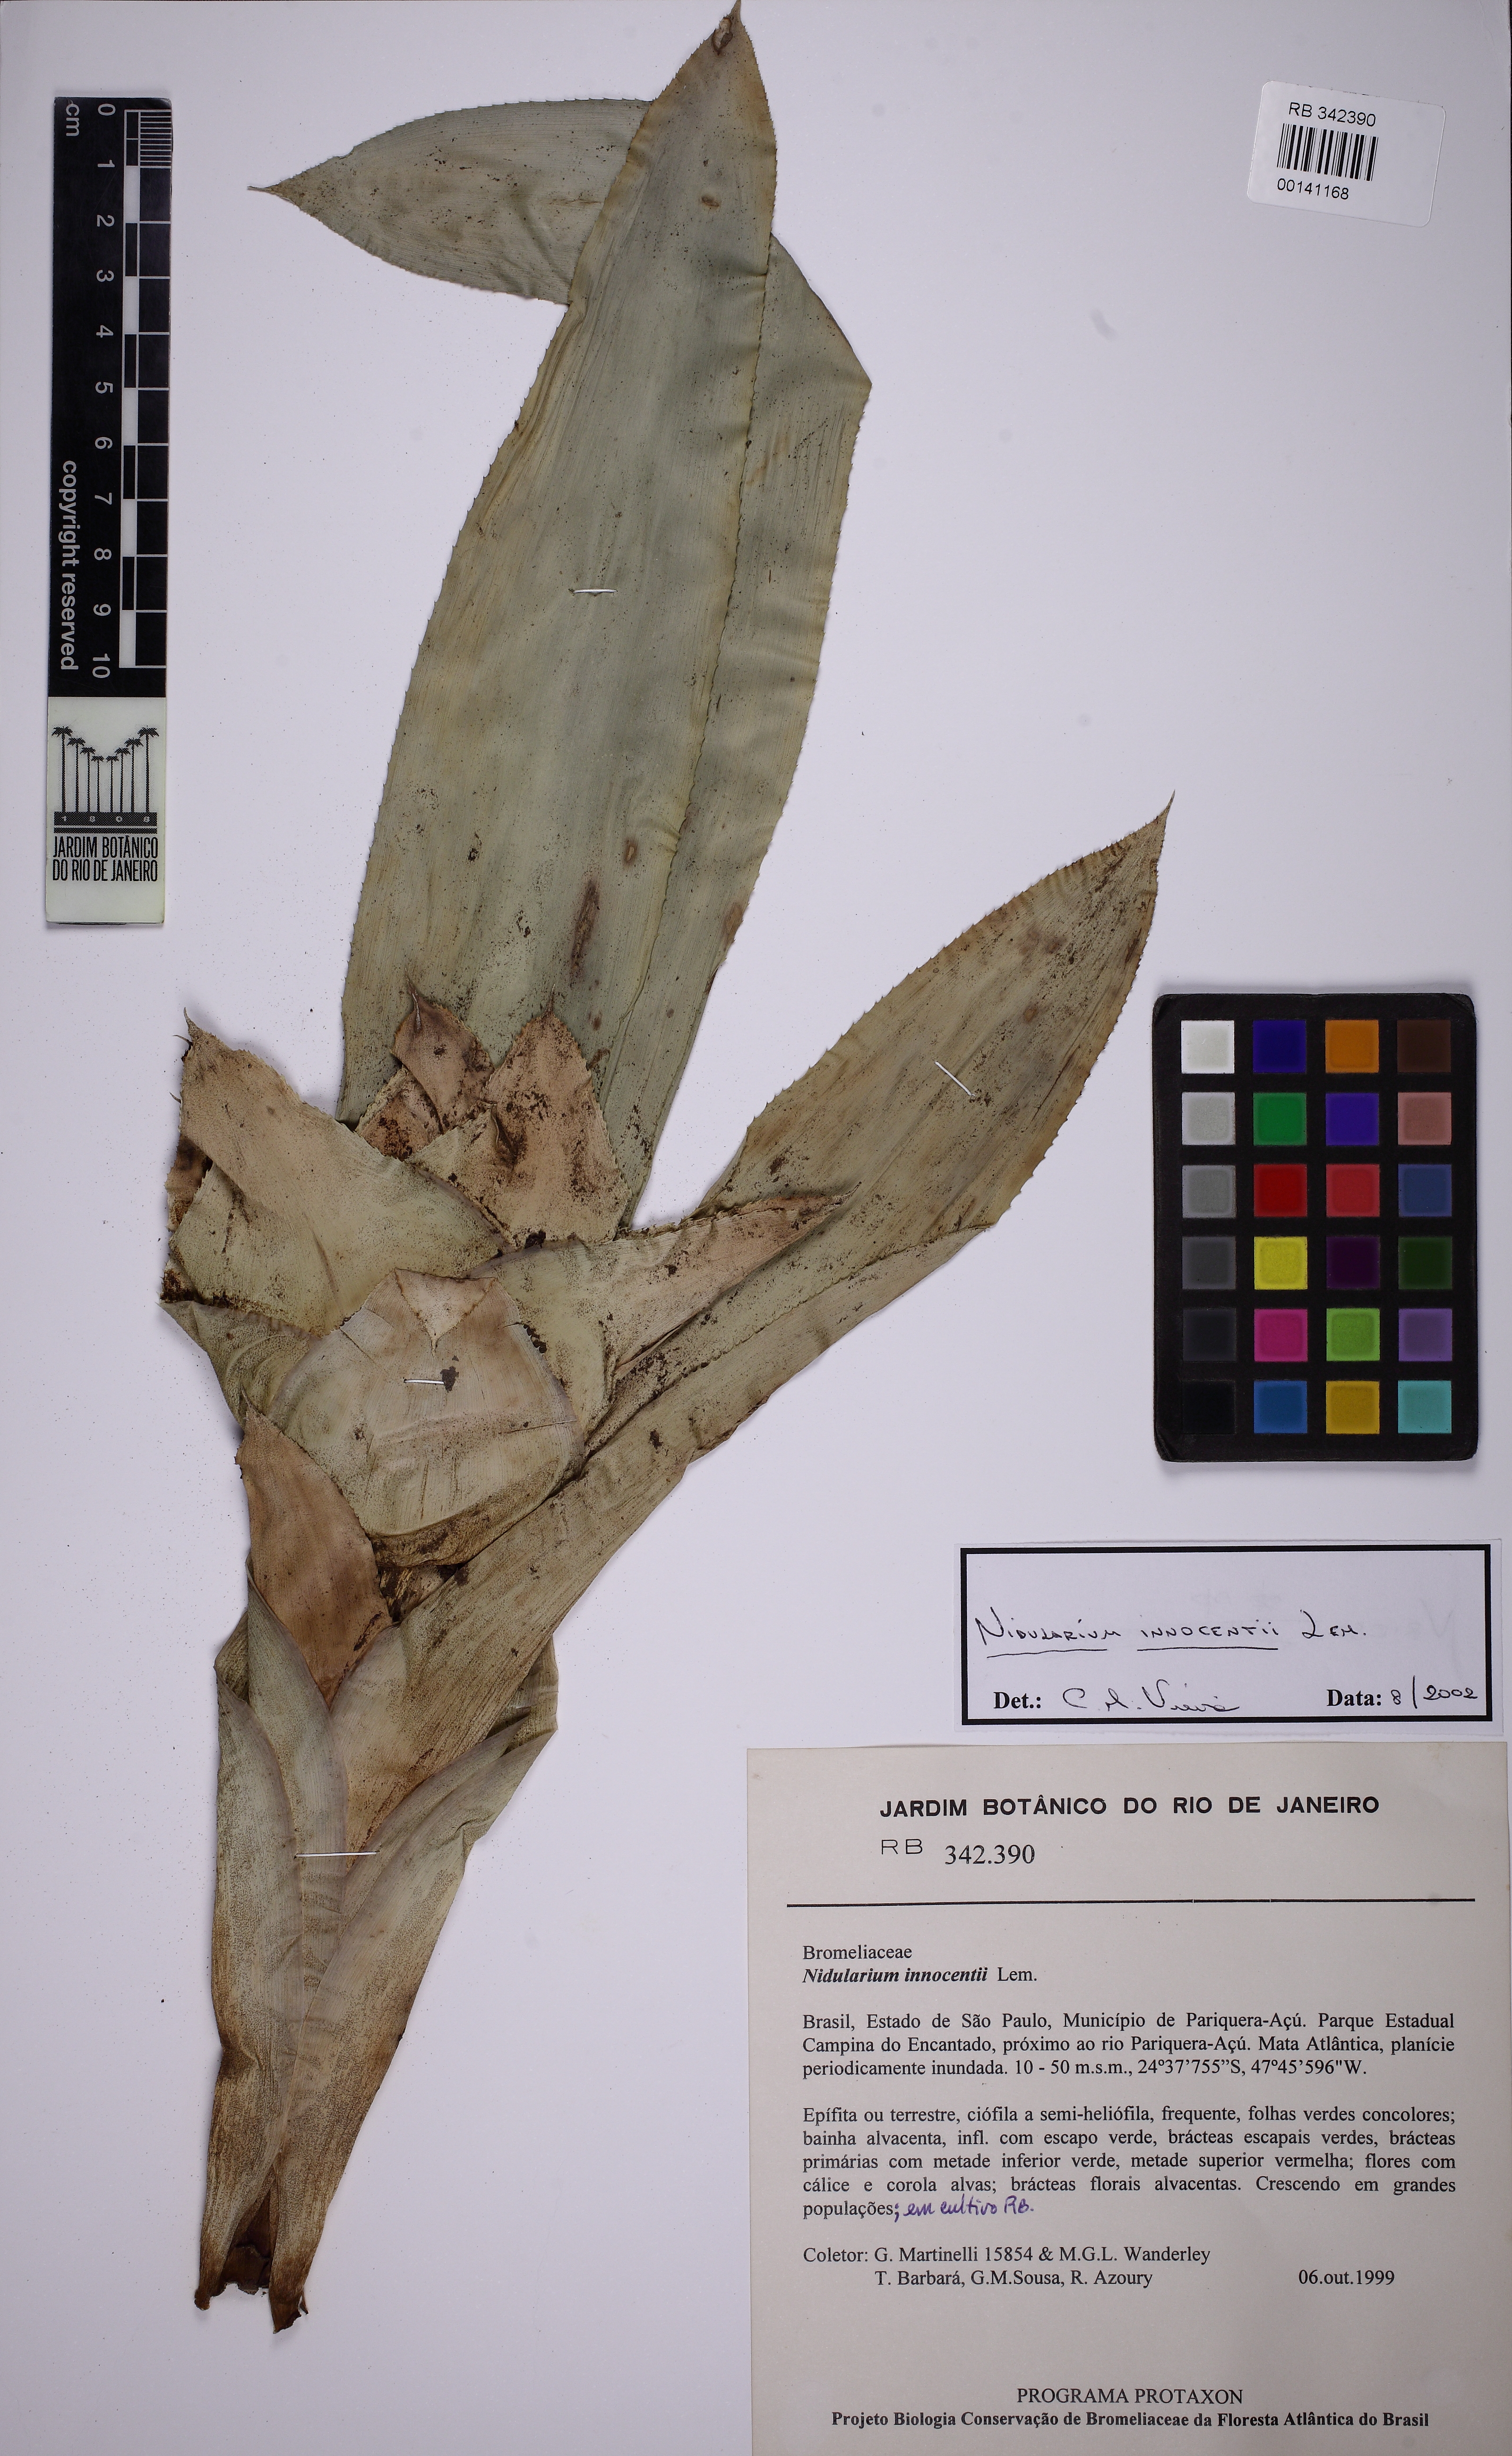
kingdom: Plantae
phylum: Tracheophyta
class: Liliopsida
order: Poales
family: Bromeliaceae
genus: Nidularium
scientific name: Nidularium innocentii
